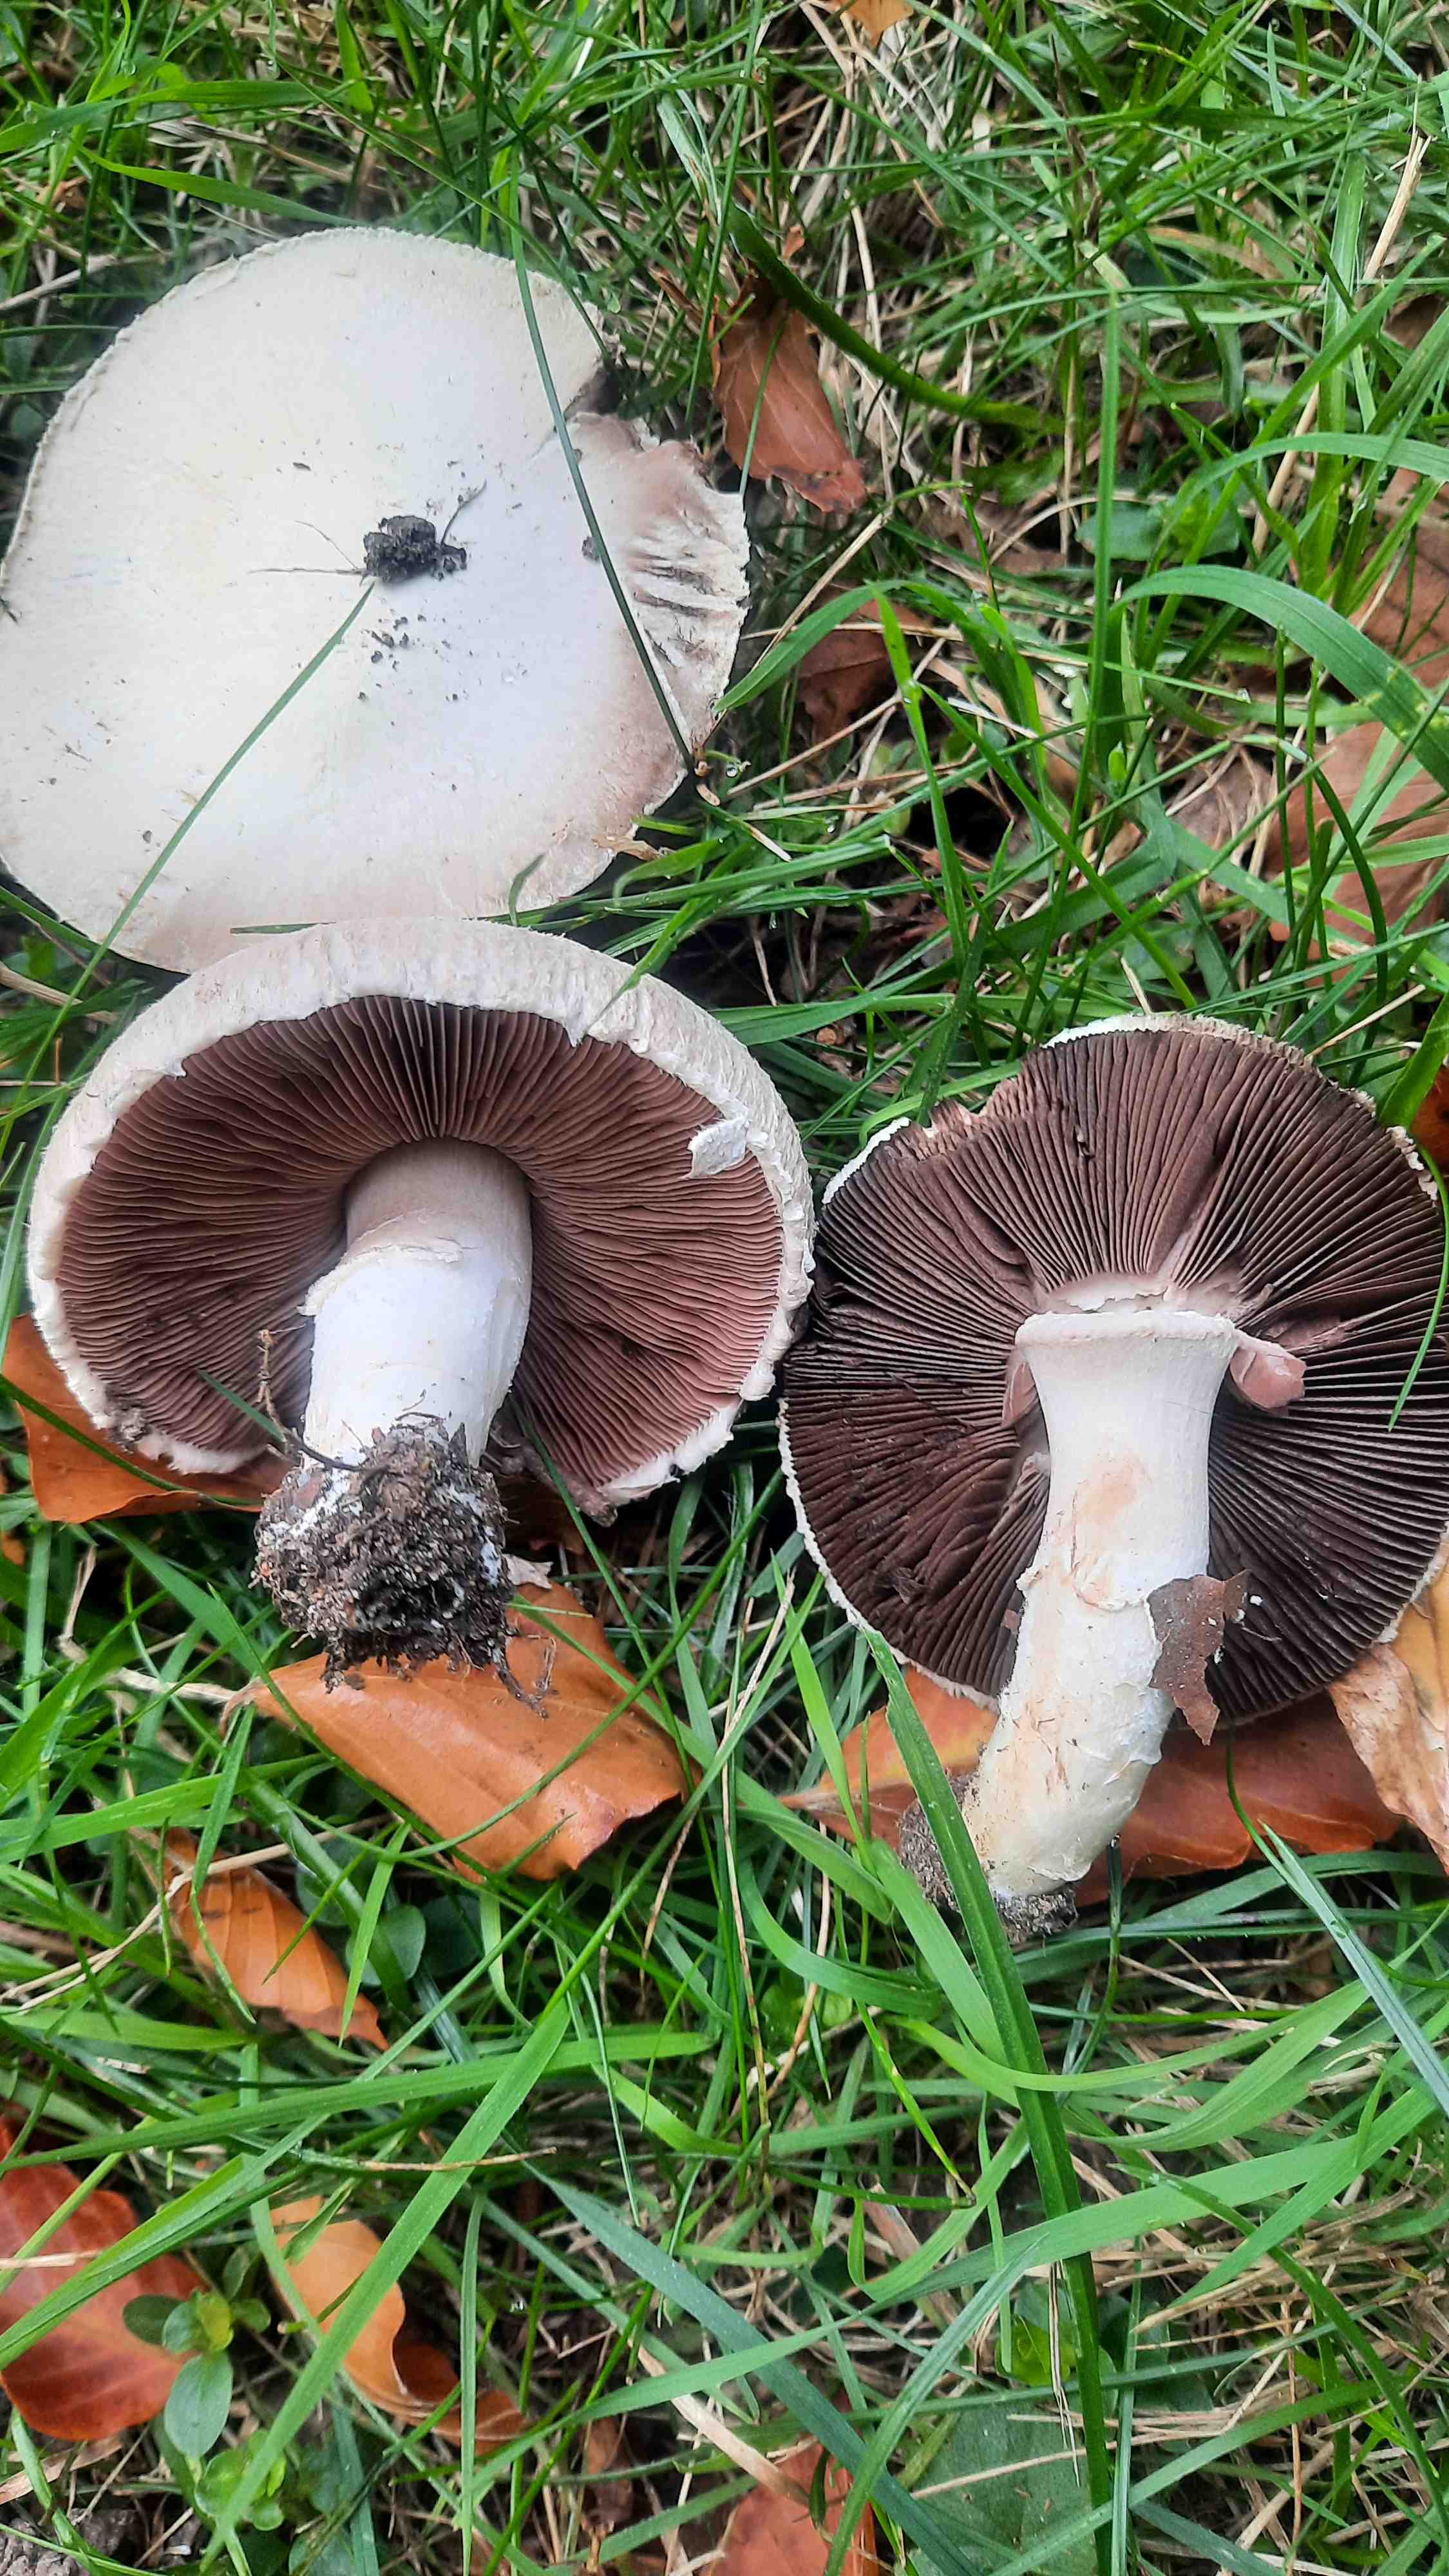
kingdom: Fungi
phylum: Basidiomycota
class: Agaricomycetes
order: Agaricales
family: Agaricaceae
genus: Agaricus
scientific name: Agaricus campestris
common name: mark-champignon
